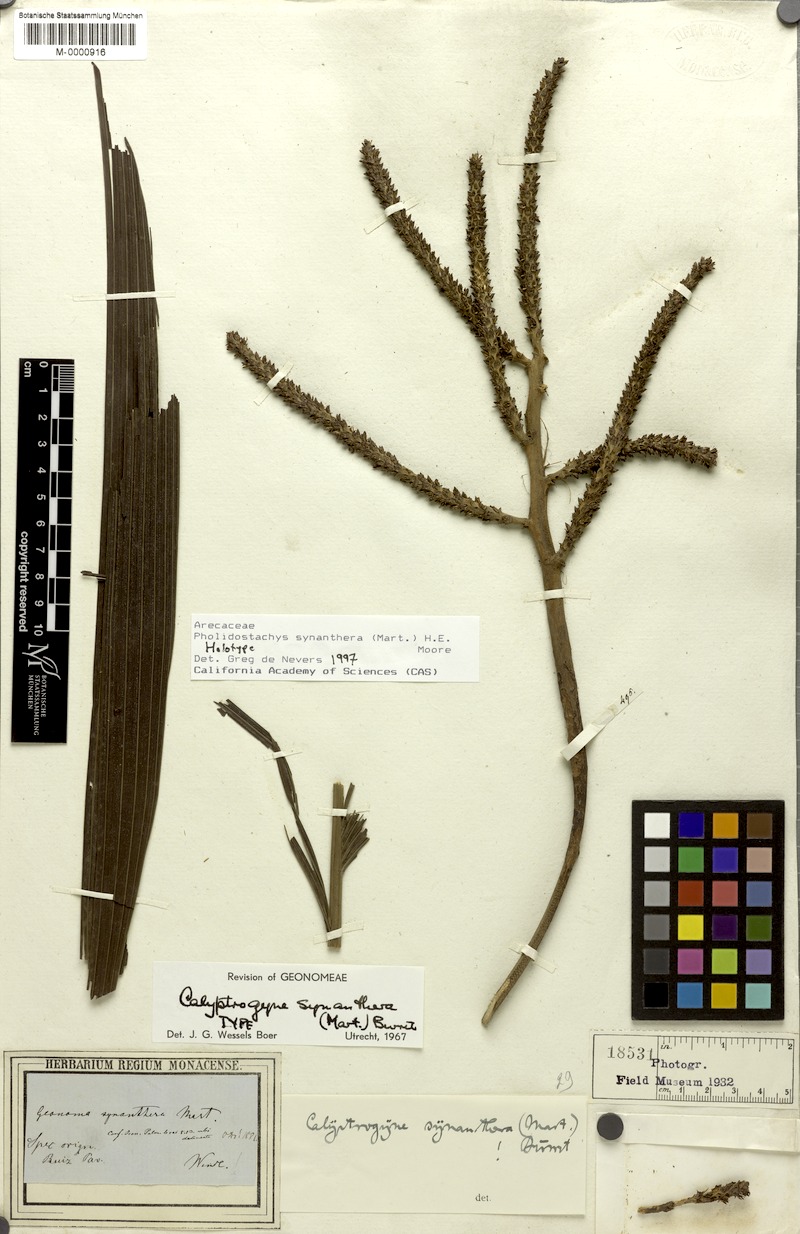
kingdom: Plantae
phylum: Tracheophyta
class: Liliopsida
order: Arecales
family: Arecaceae
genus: Pholidostachys
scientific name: Pholidostachys synanthera
